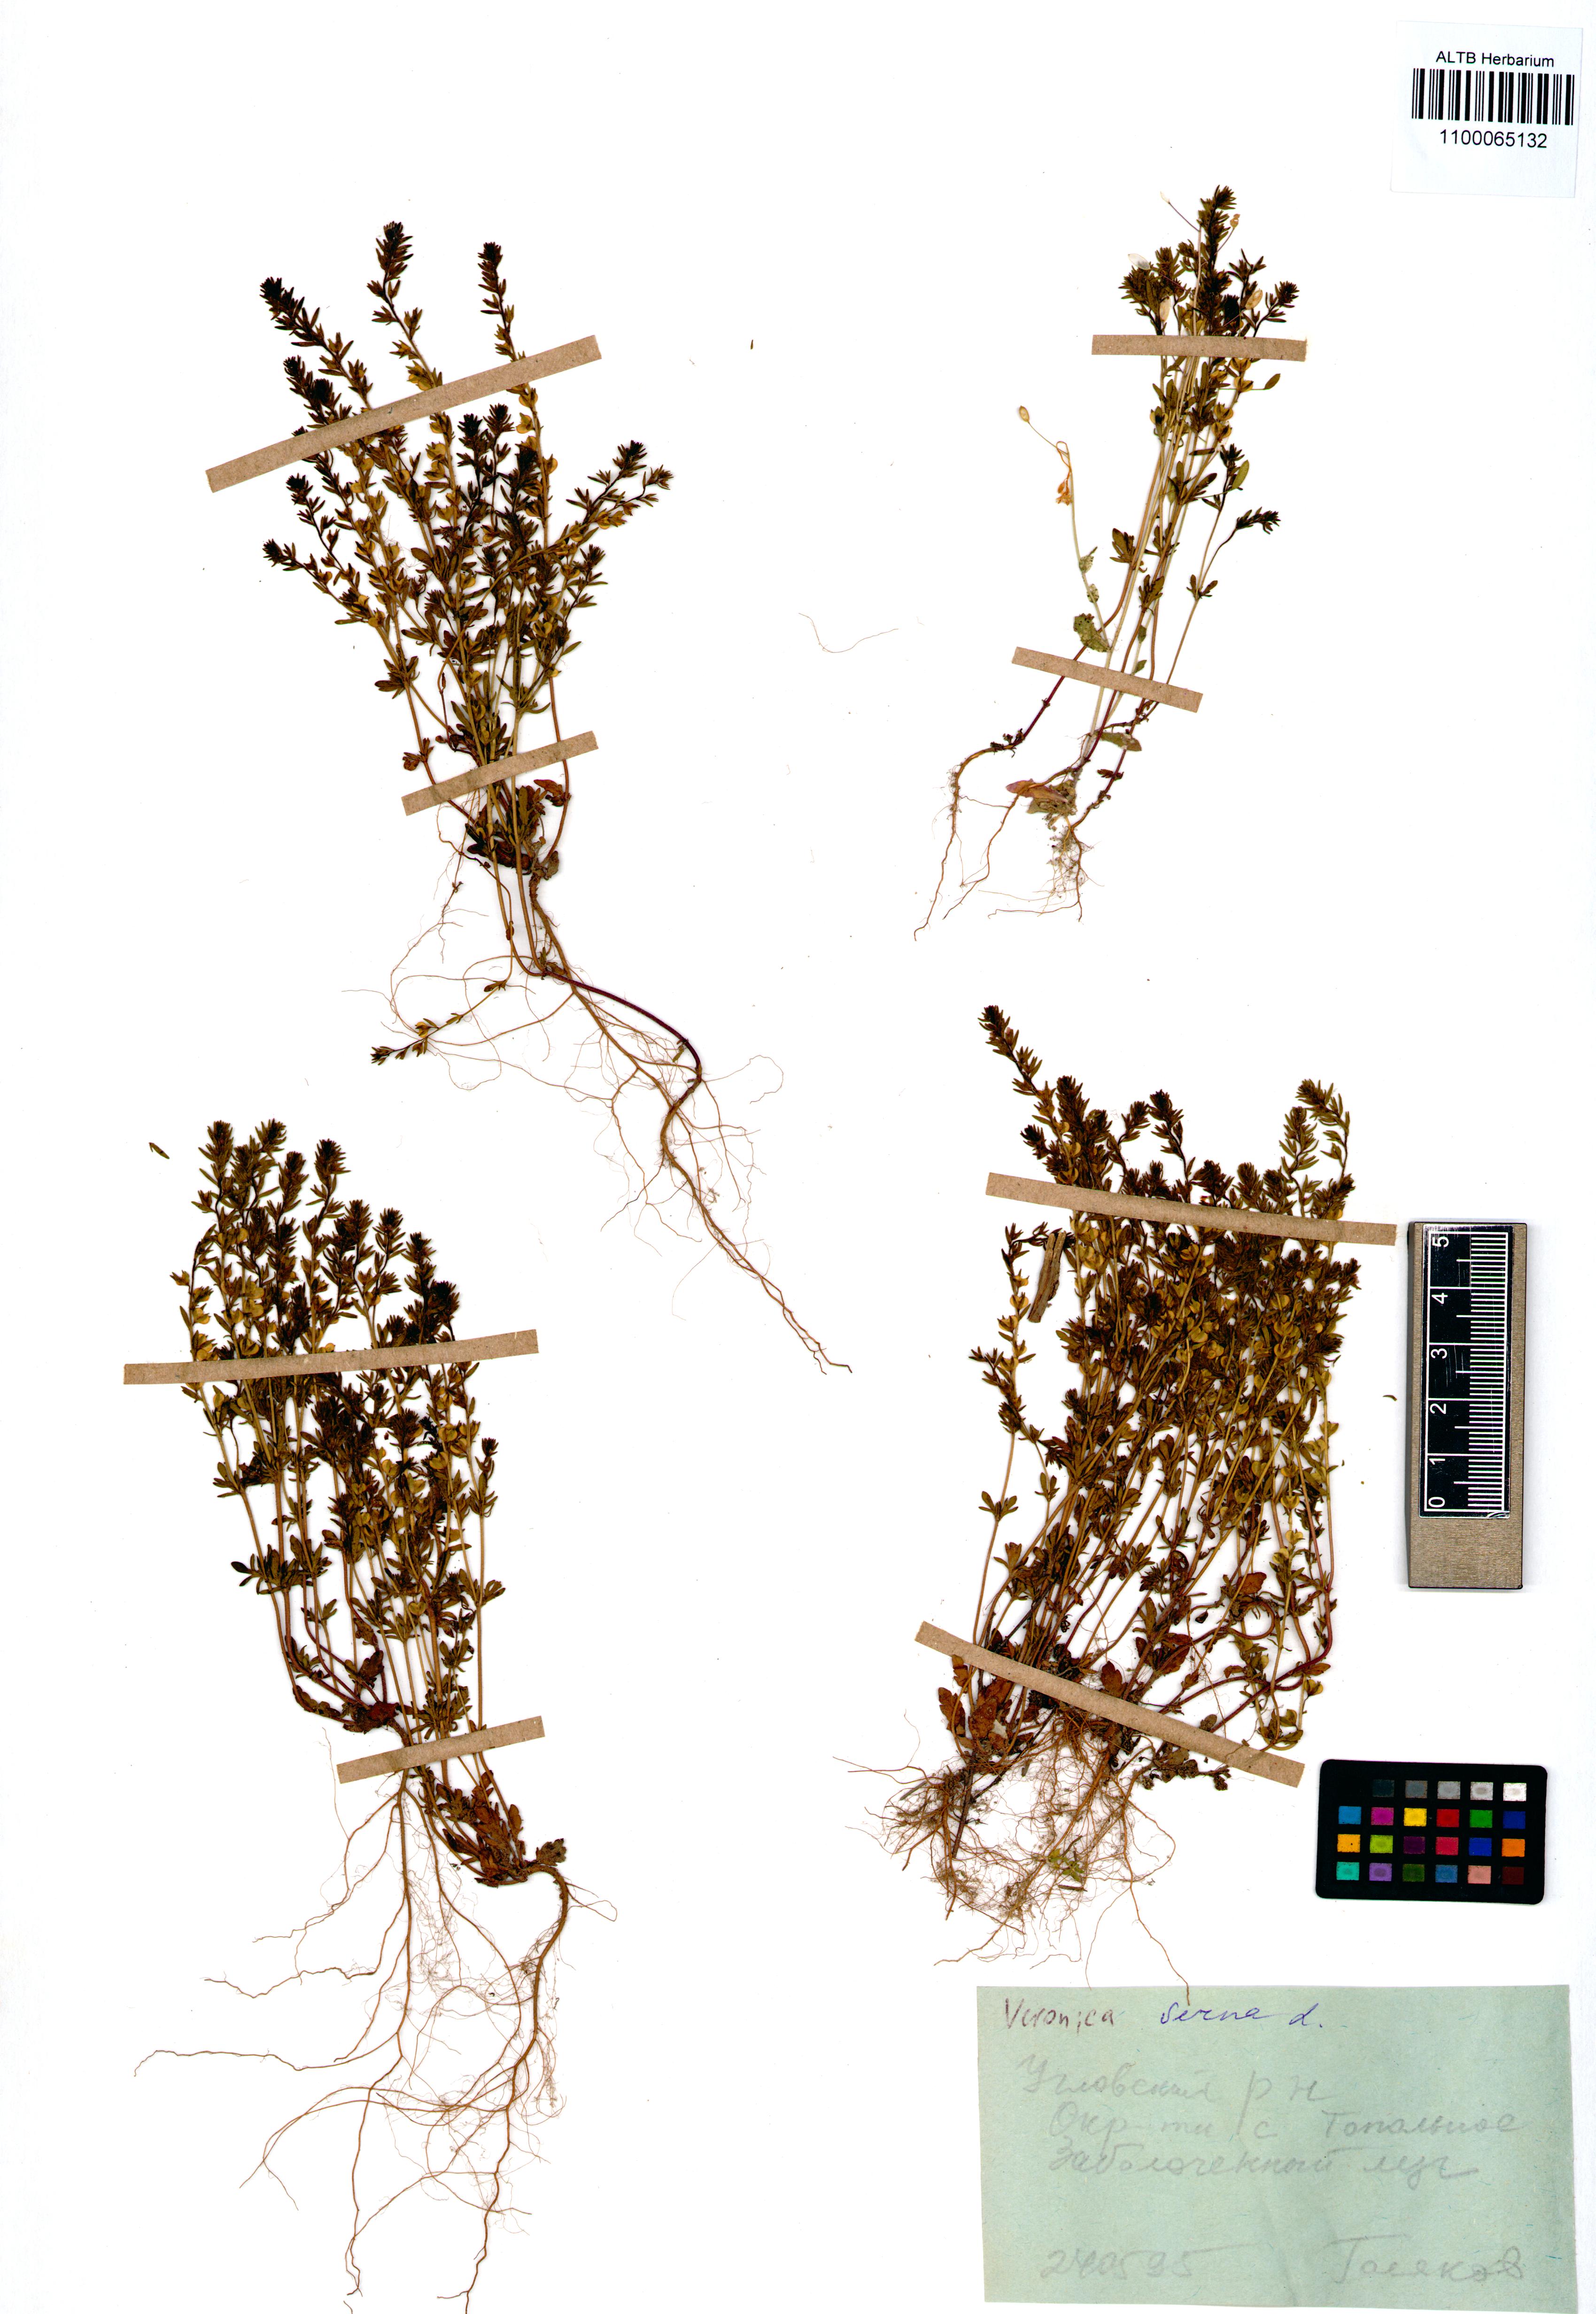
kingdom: Plantae
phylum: Tracheophyta
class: Magnoliopsida
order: Lamiales
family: Plantaginaceae
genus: Veronica
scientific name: Veronica verna
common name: Spring speedwell
